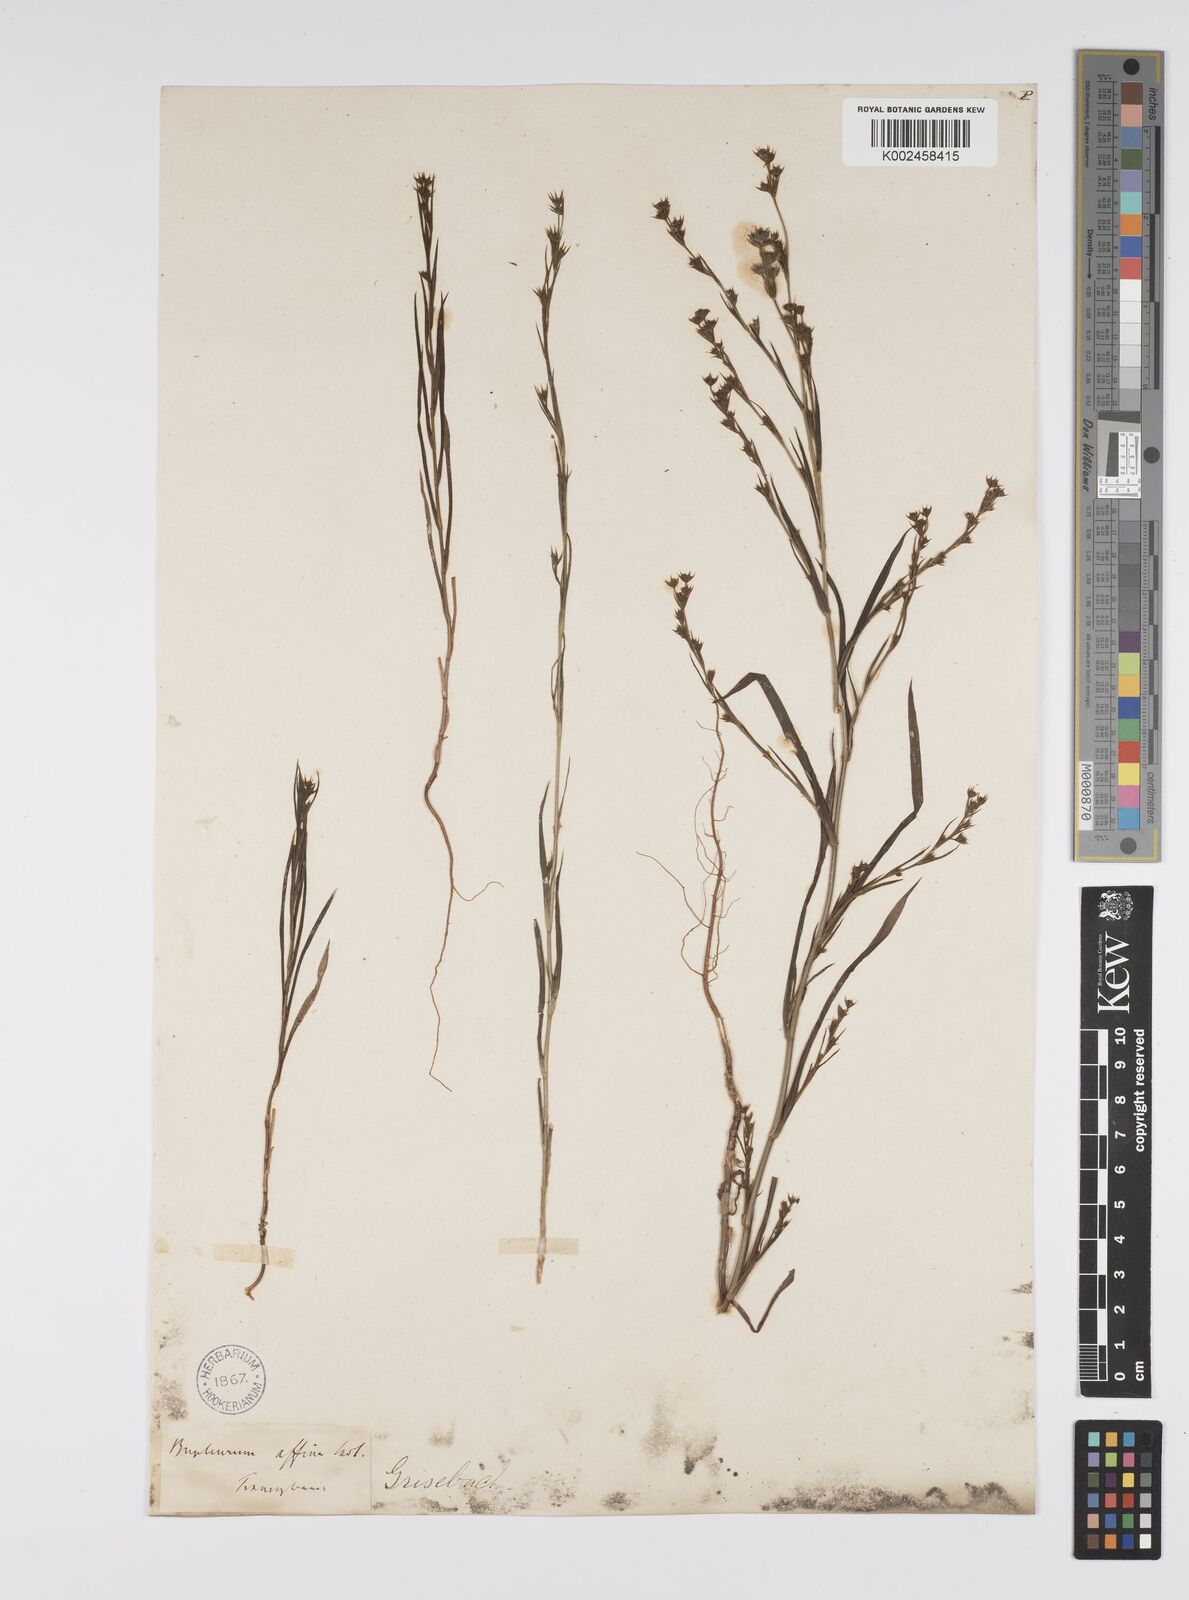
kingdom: Plantae
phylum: Tracheophyta
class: Magnoliopsida
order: Apiales
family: Apiaceae
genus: Bupleurum
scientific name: Bupleurum affine
